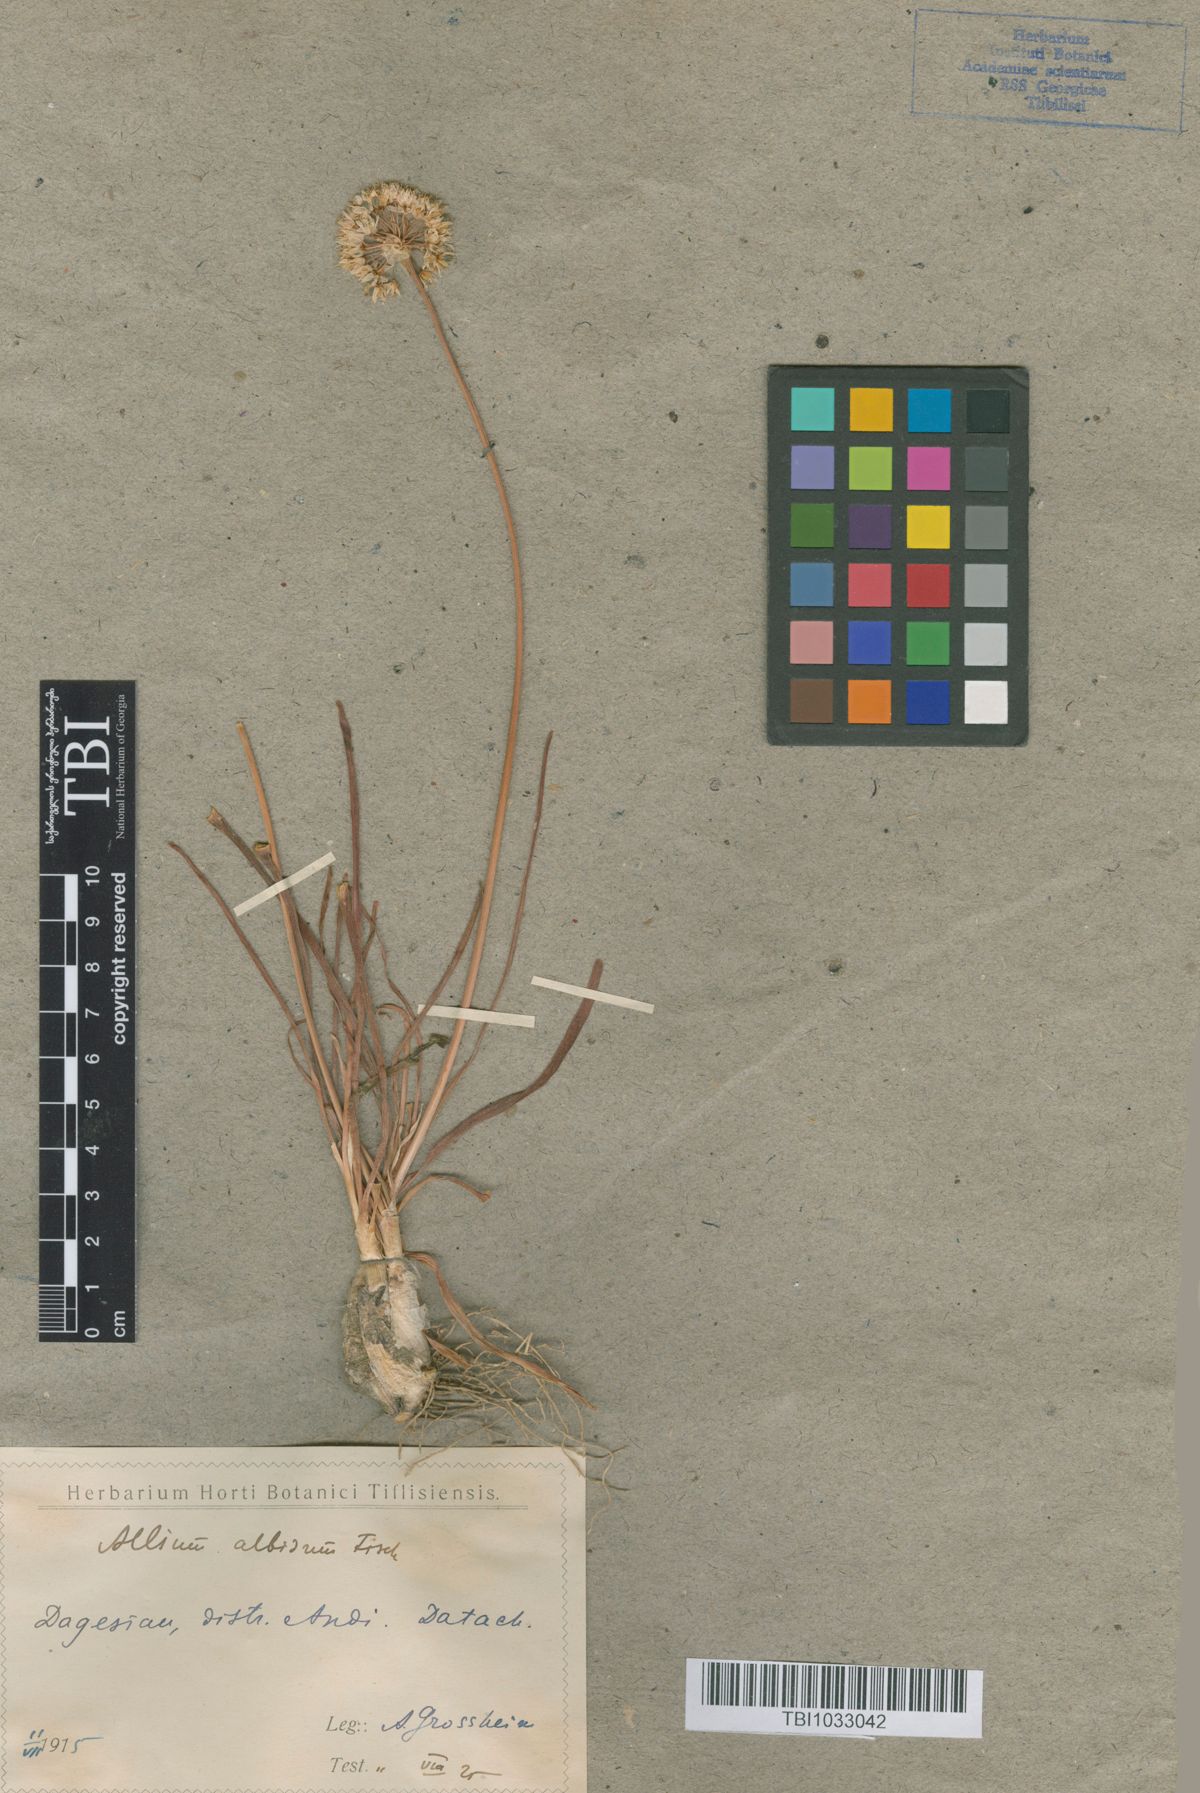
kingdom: Plantae
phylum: Tracheophyta
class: Liliopsida
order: Asparagales
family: Amaryllidaceae
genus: Allium
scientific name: Allium denudatum
